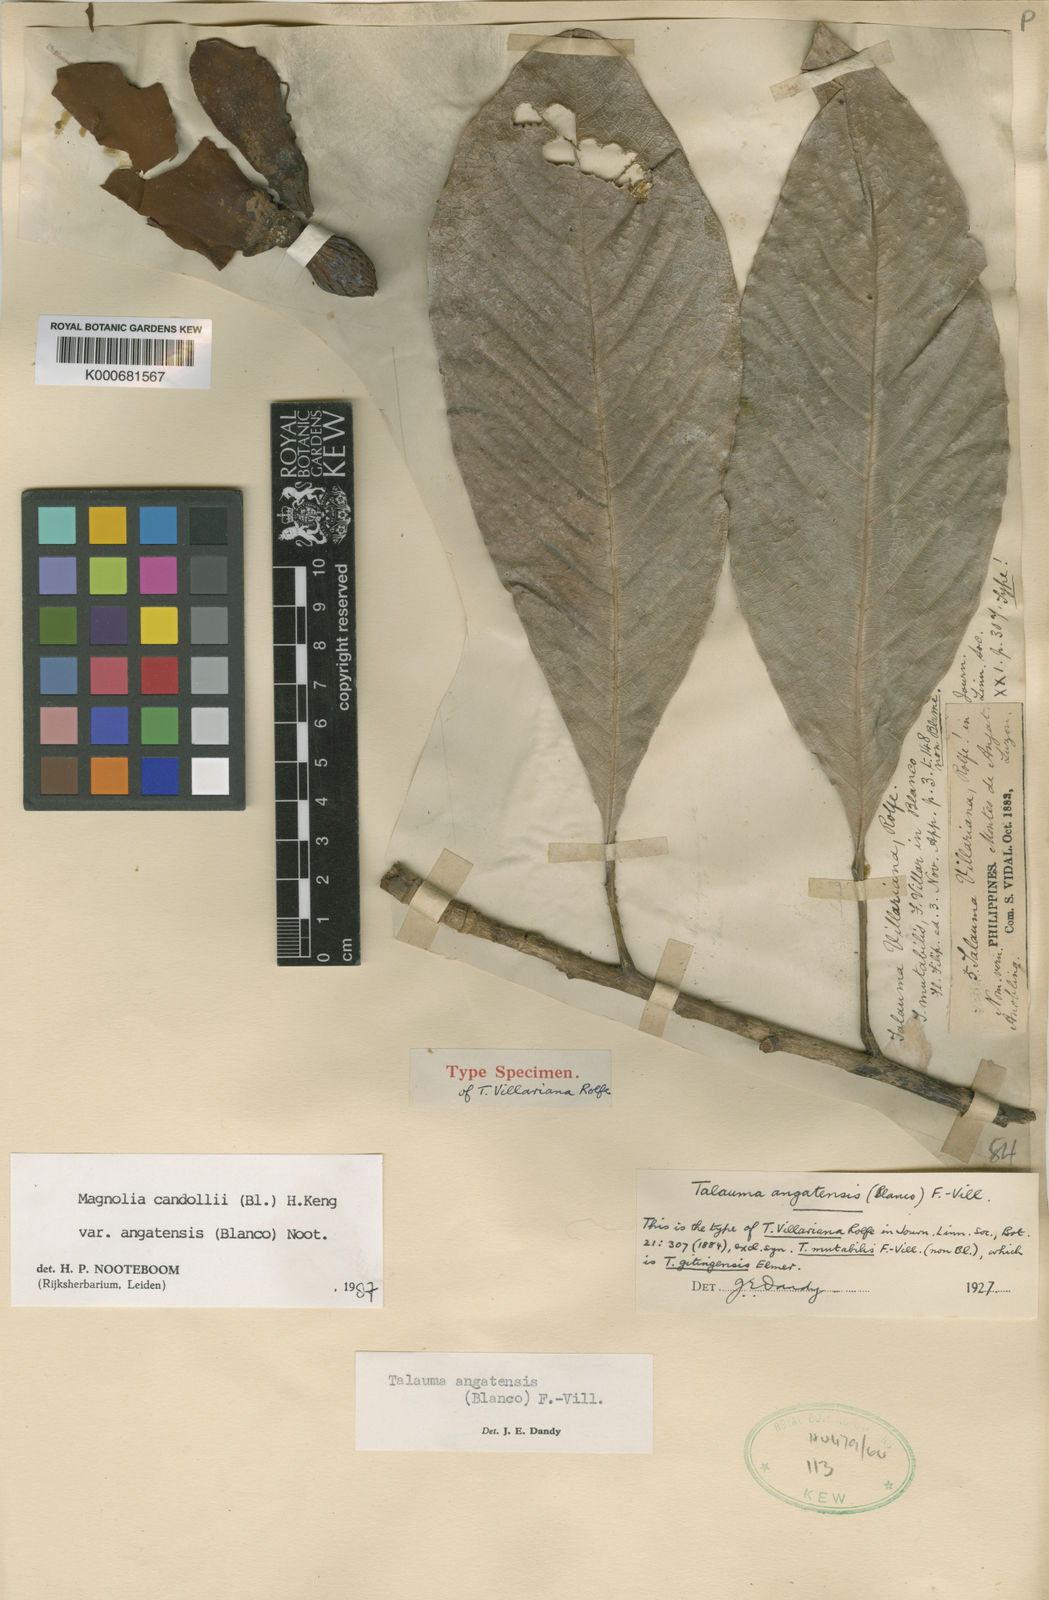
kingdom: Plantae
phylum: Tracheophyta
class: Magnoliopsida
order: Magnoliales
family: Magnoliaceae
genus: Magnolia
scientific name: Magnolia angatensis
